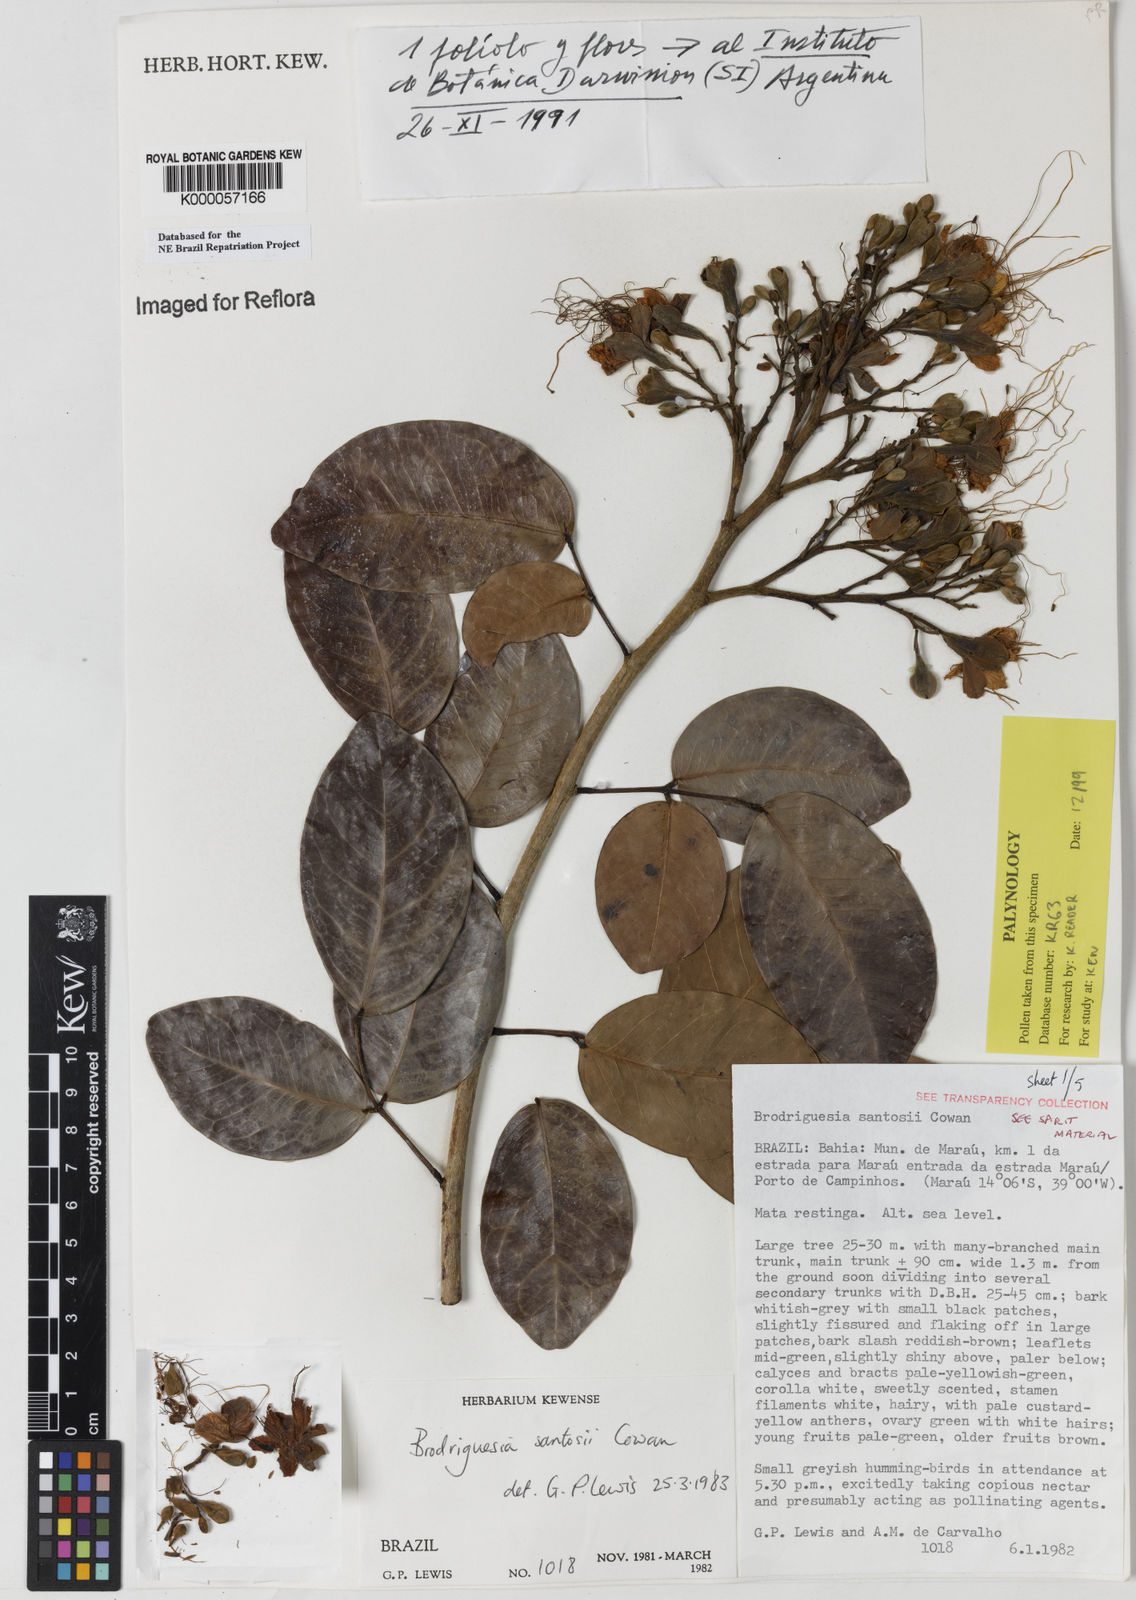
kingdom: Plantae
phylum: Tracheophyta
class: Magnoliopsida
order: Fabales
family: Fabaceae
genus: Brodriguesia
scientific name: Brodriguesia santosii
